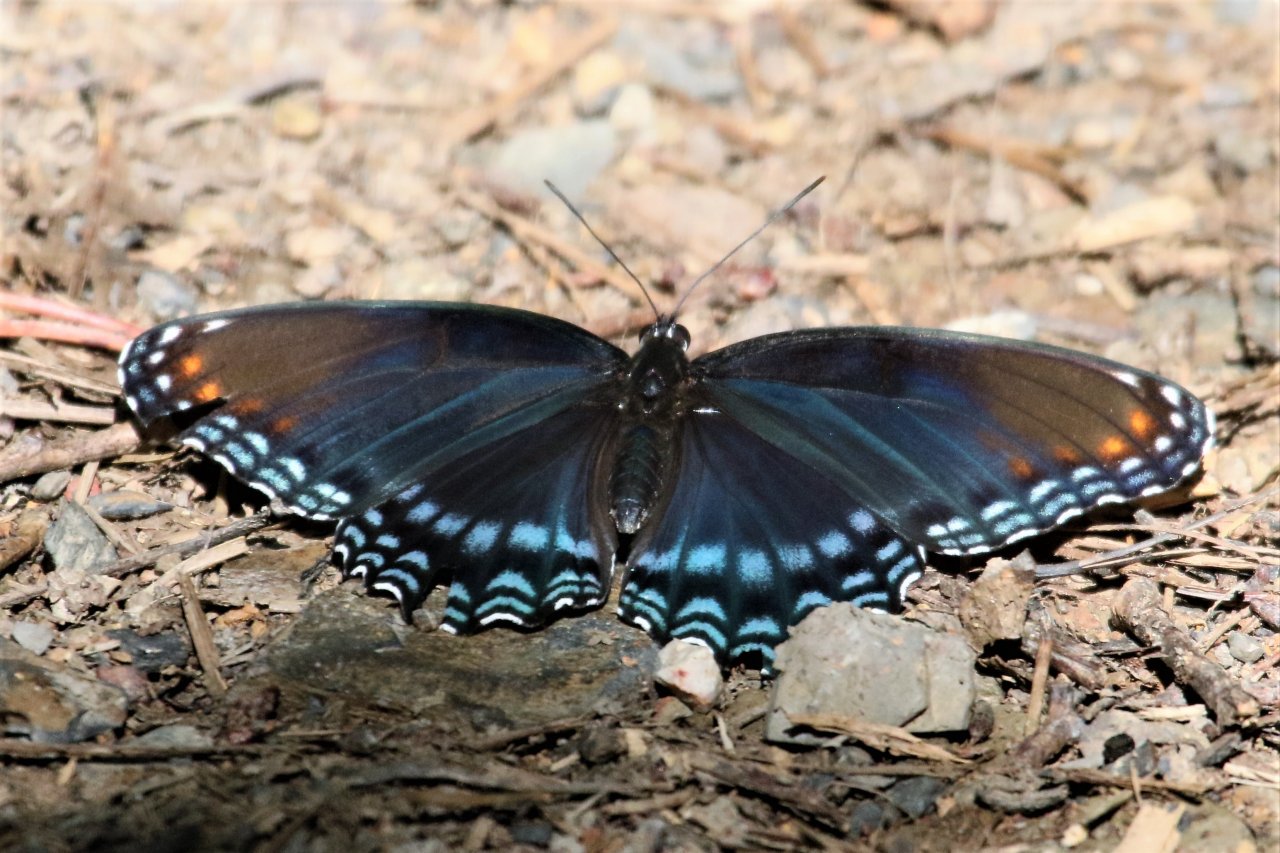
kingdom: Animalia
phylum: Arthropoda
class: Insecta
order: Lepidoptera
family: Nymphalidae
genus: Limenitis
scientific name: Limenitis astyanax
